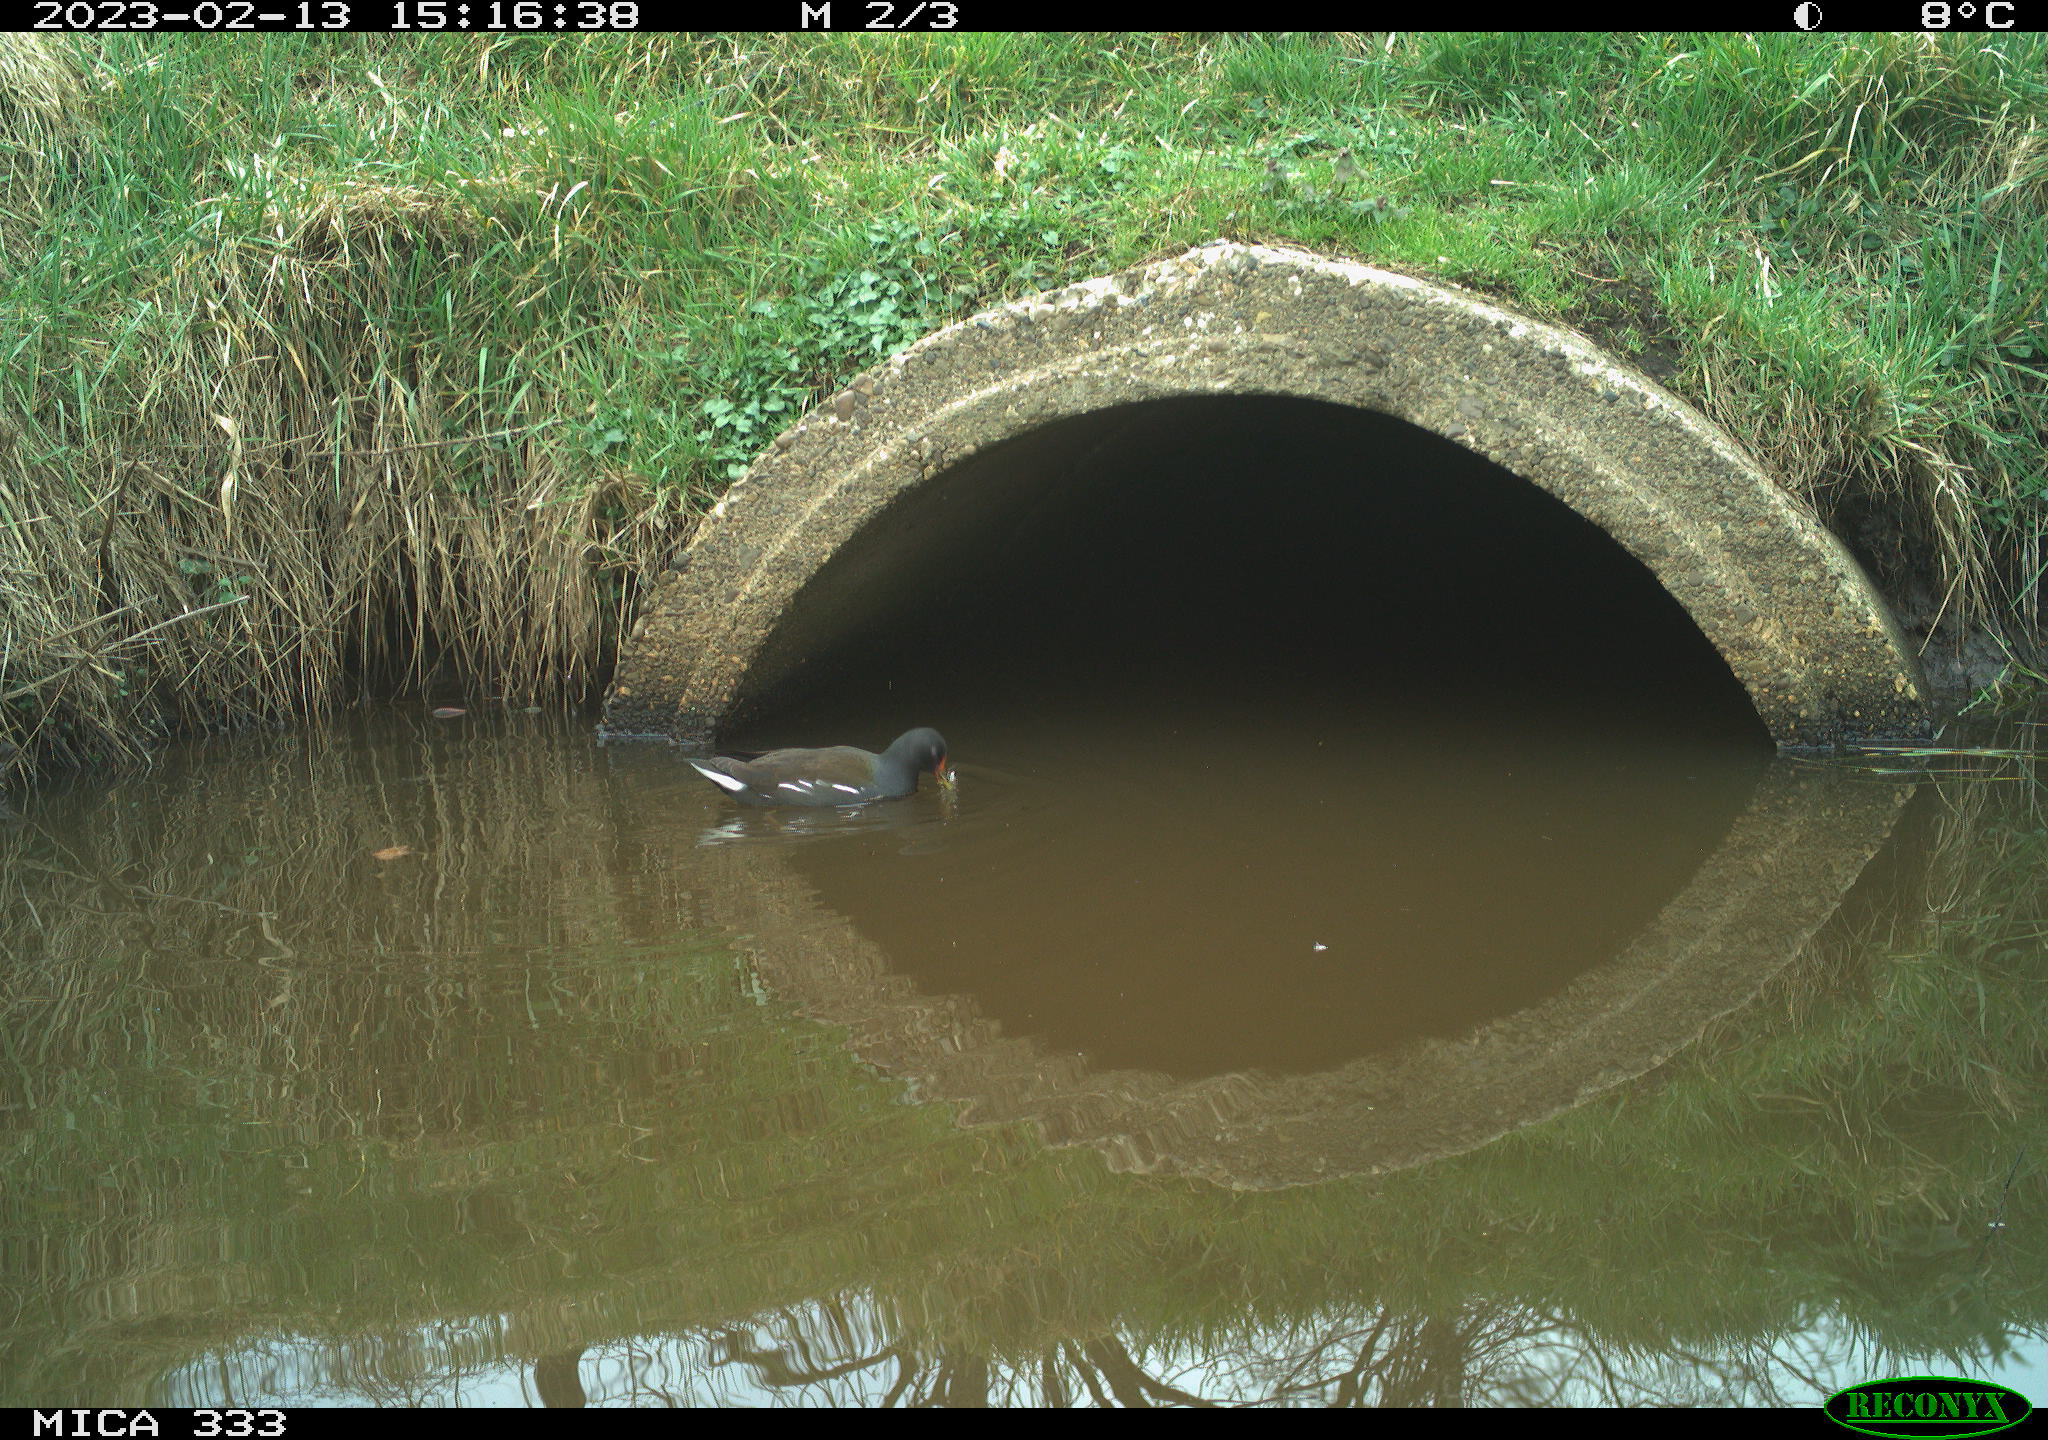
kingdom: Animalia
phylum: Chordata
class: Aves
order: Gruiformes
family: Rallidae
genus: Gallinula
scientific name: Gallinula chloropus
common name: Common moorhen
